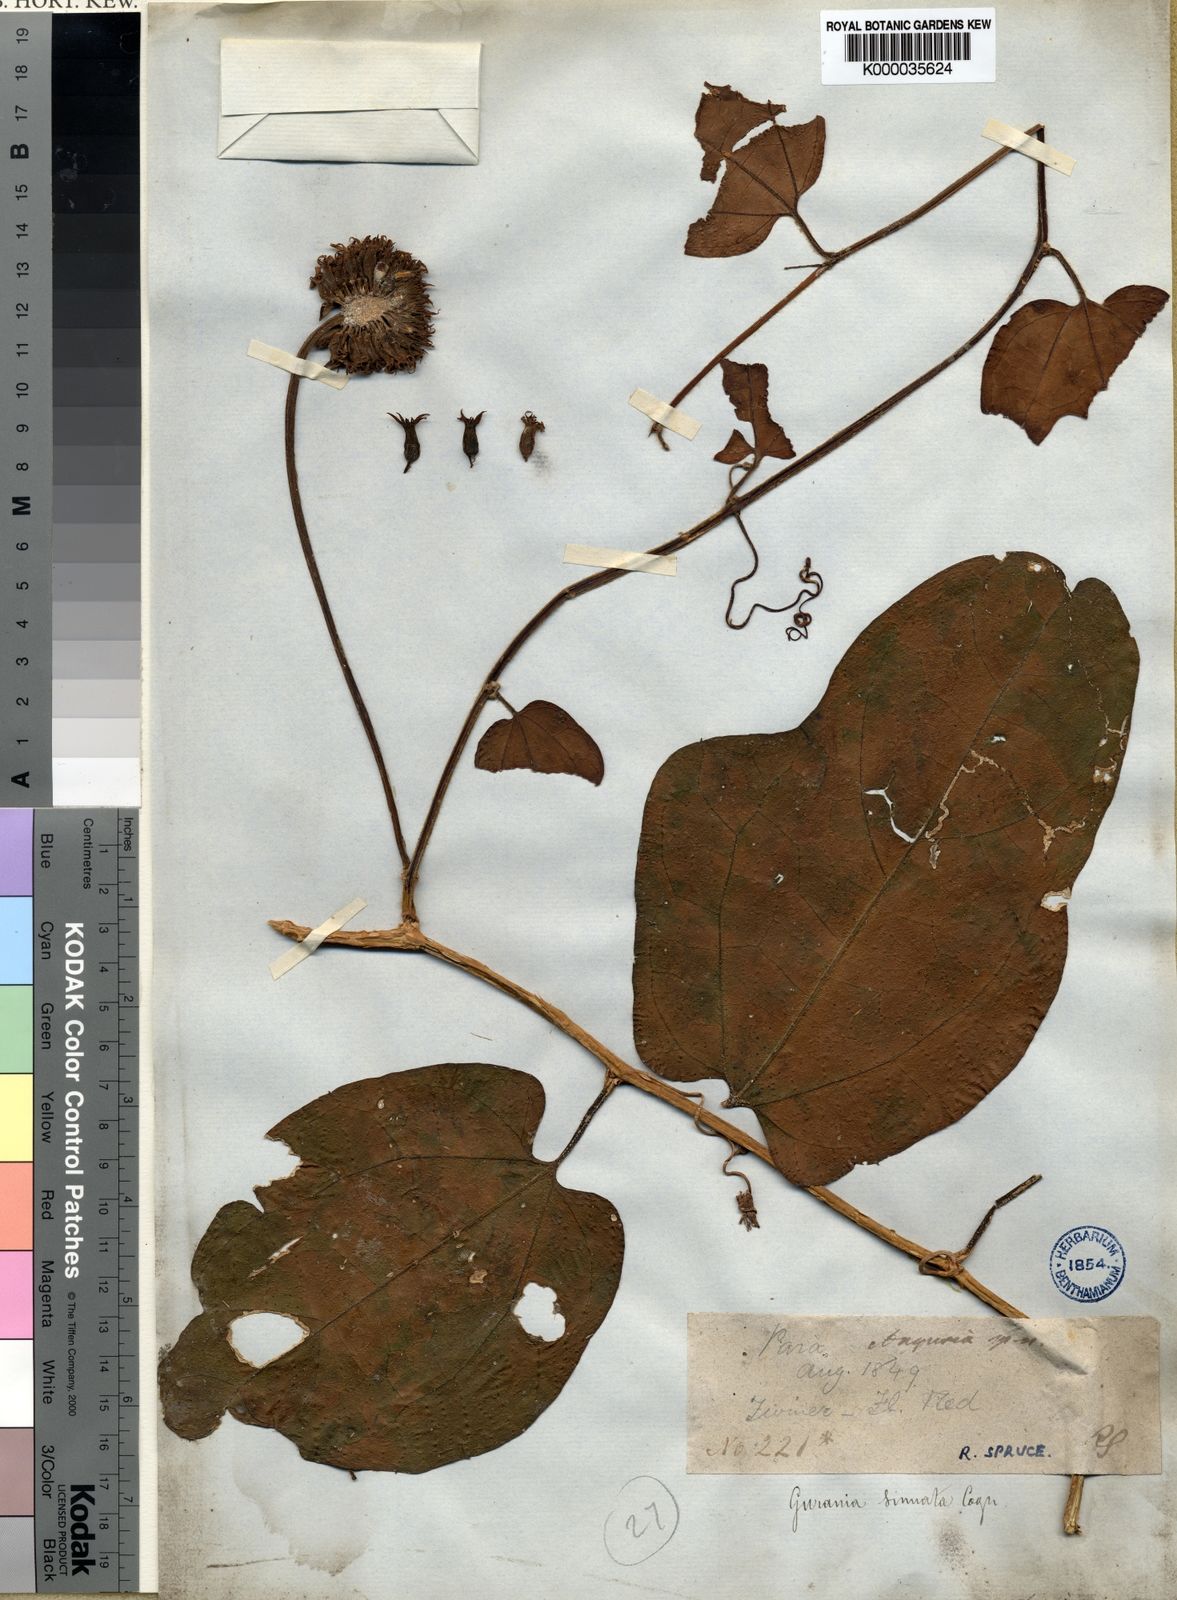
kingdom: Plantae
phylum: Tracheophyta
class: Magnoliopsida
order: Cucurbitales
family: Cucurbitaceae
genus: Gurania
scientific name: Gurania sinuata
